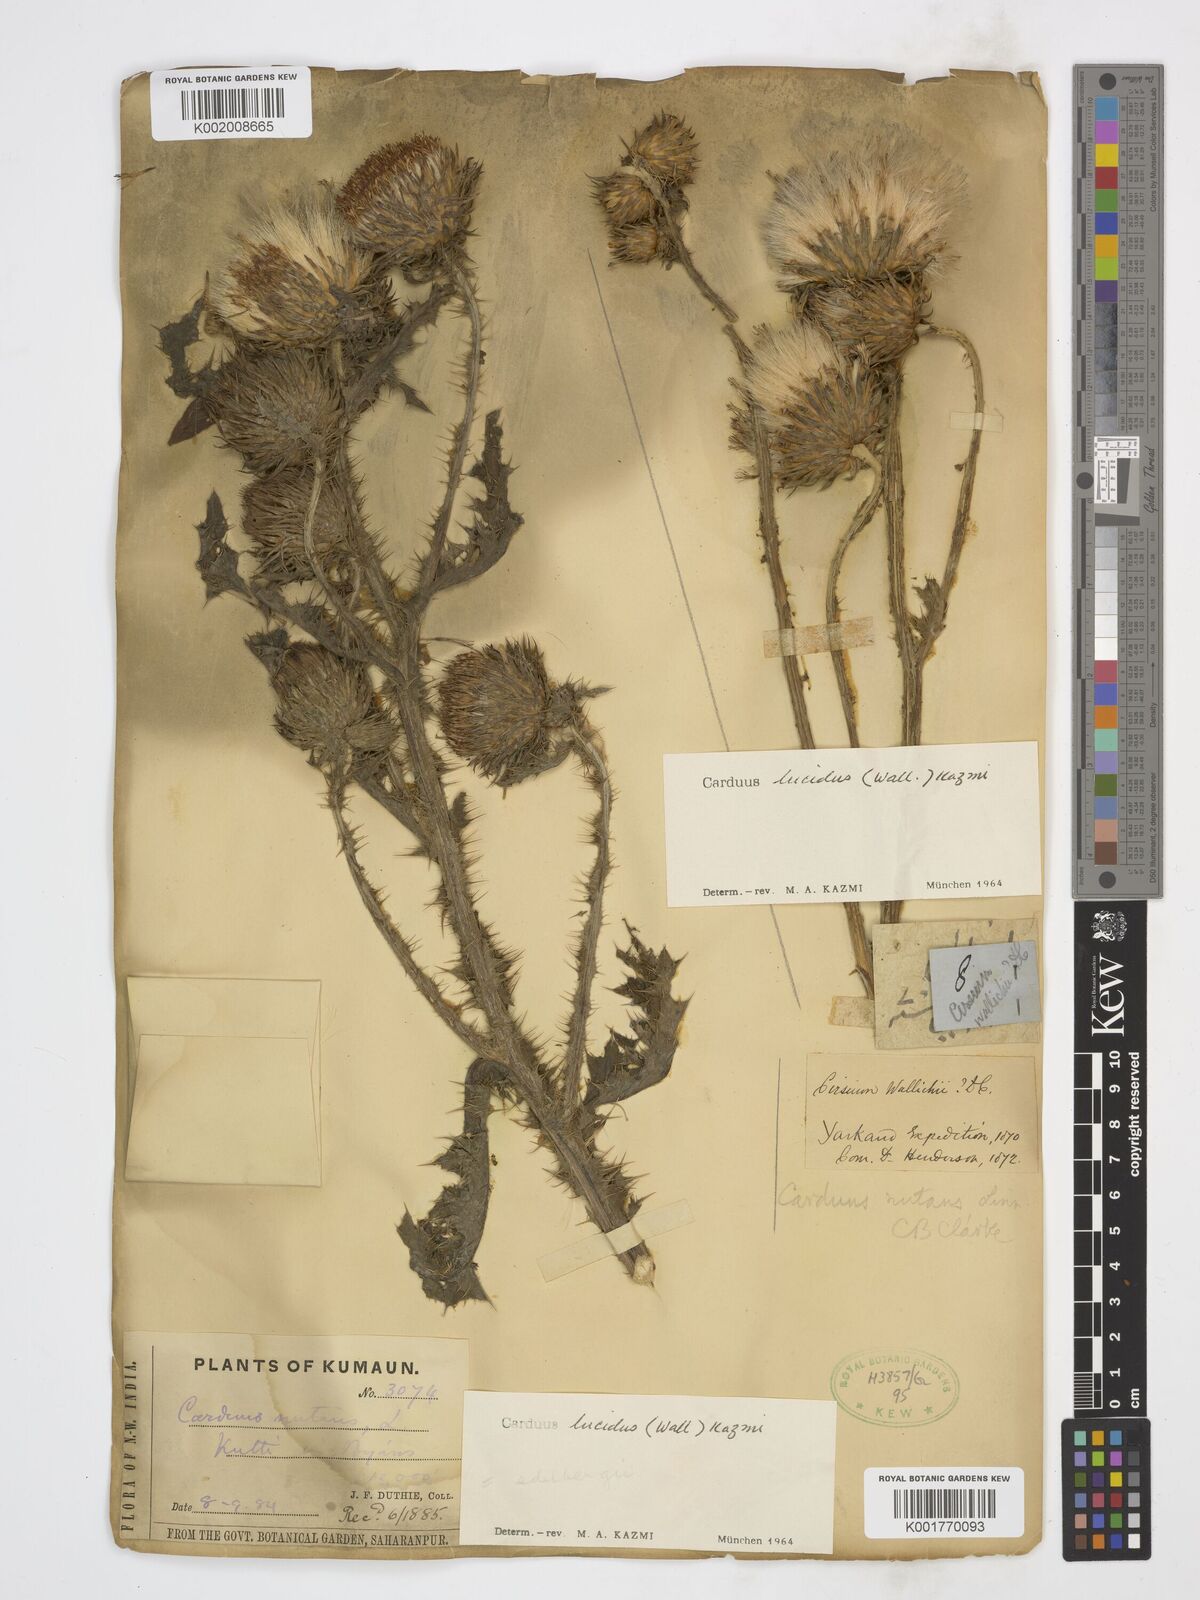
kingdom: Plantae
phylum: Tracheophyta
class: Magnoliopsida
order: Asterales
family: Asteraceae
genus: Carduus
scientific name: Carduus pycnocephalus
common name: Plymouth thistle
